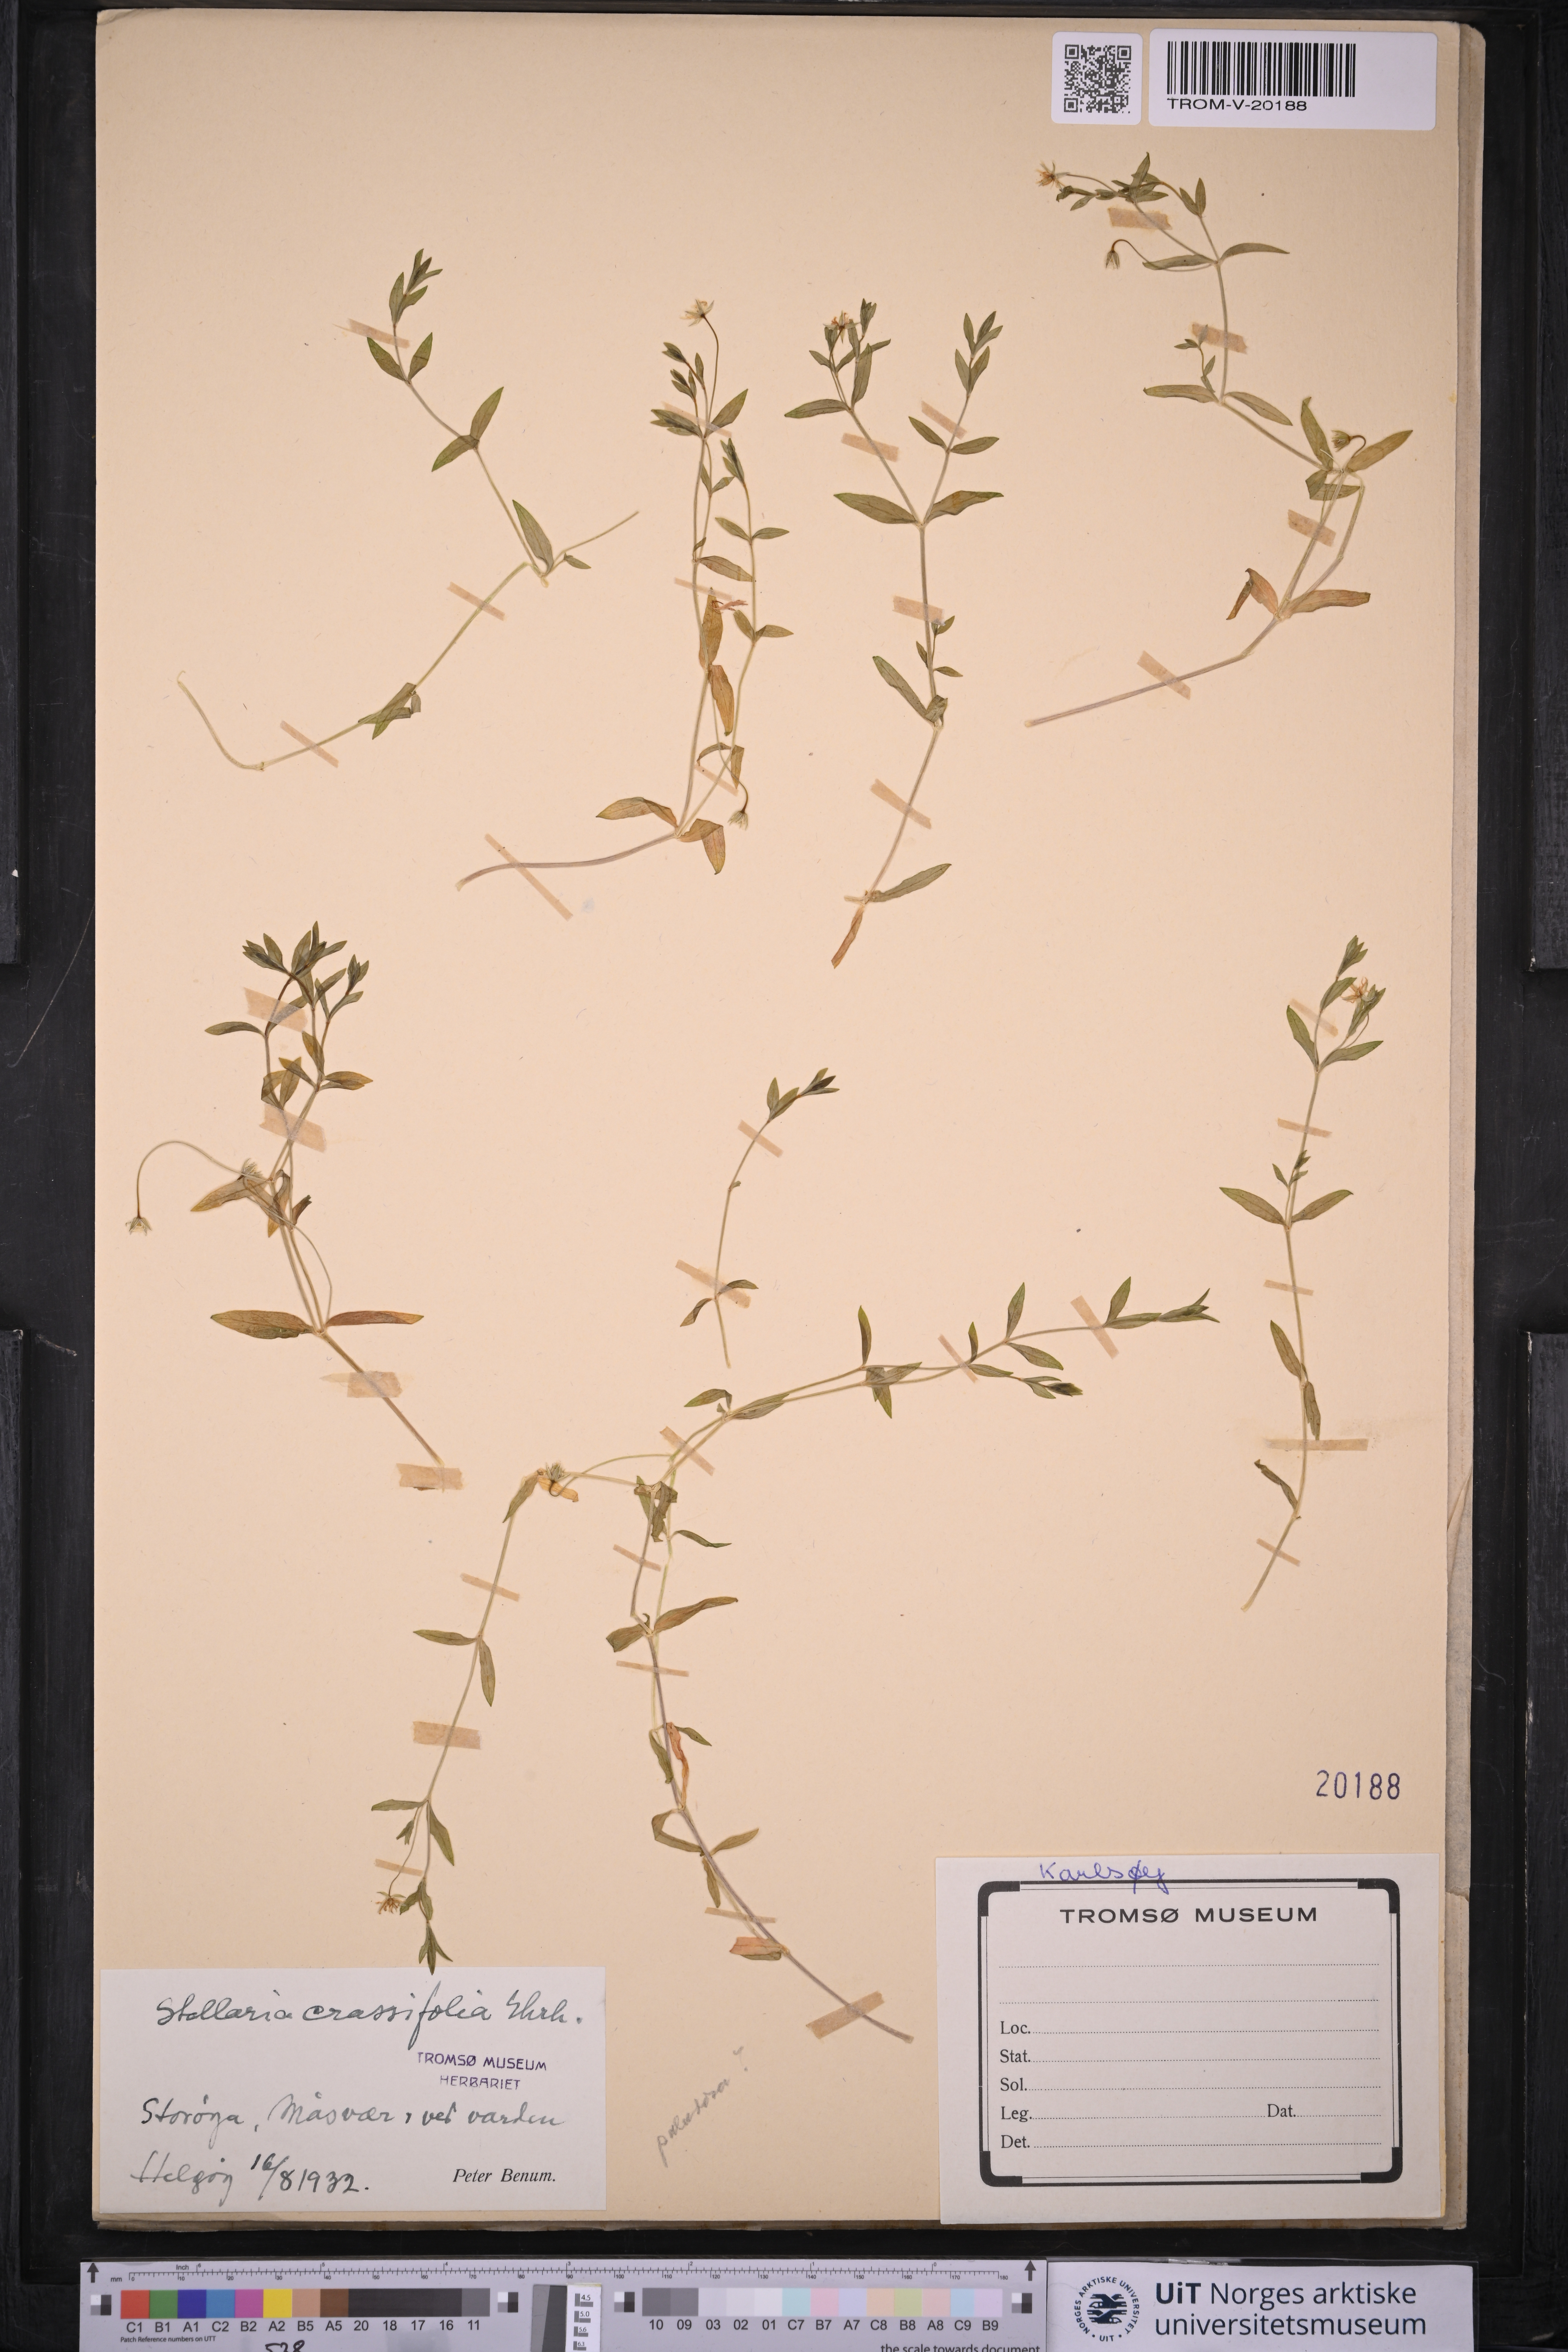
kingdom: Plantae
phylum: Tracheophyta
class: Magnoliopsida
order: Caryophyllales
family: Caryophyllaceae
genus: Stellaria
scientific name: Stellaria crassifolia
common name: Fleshy starwort
